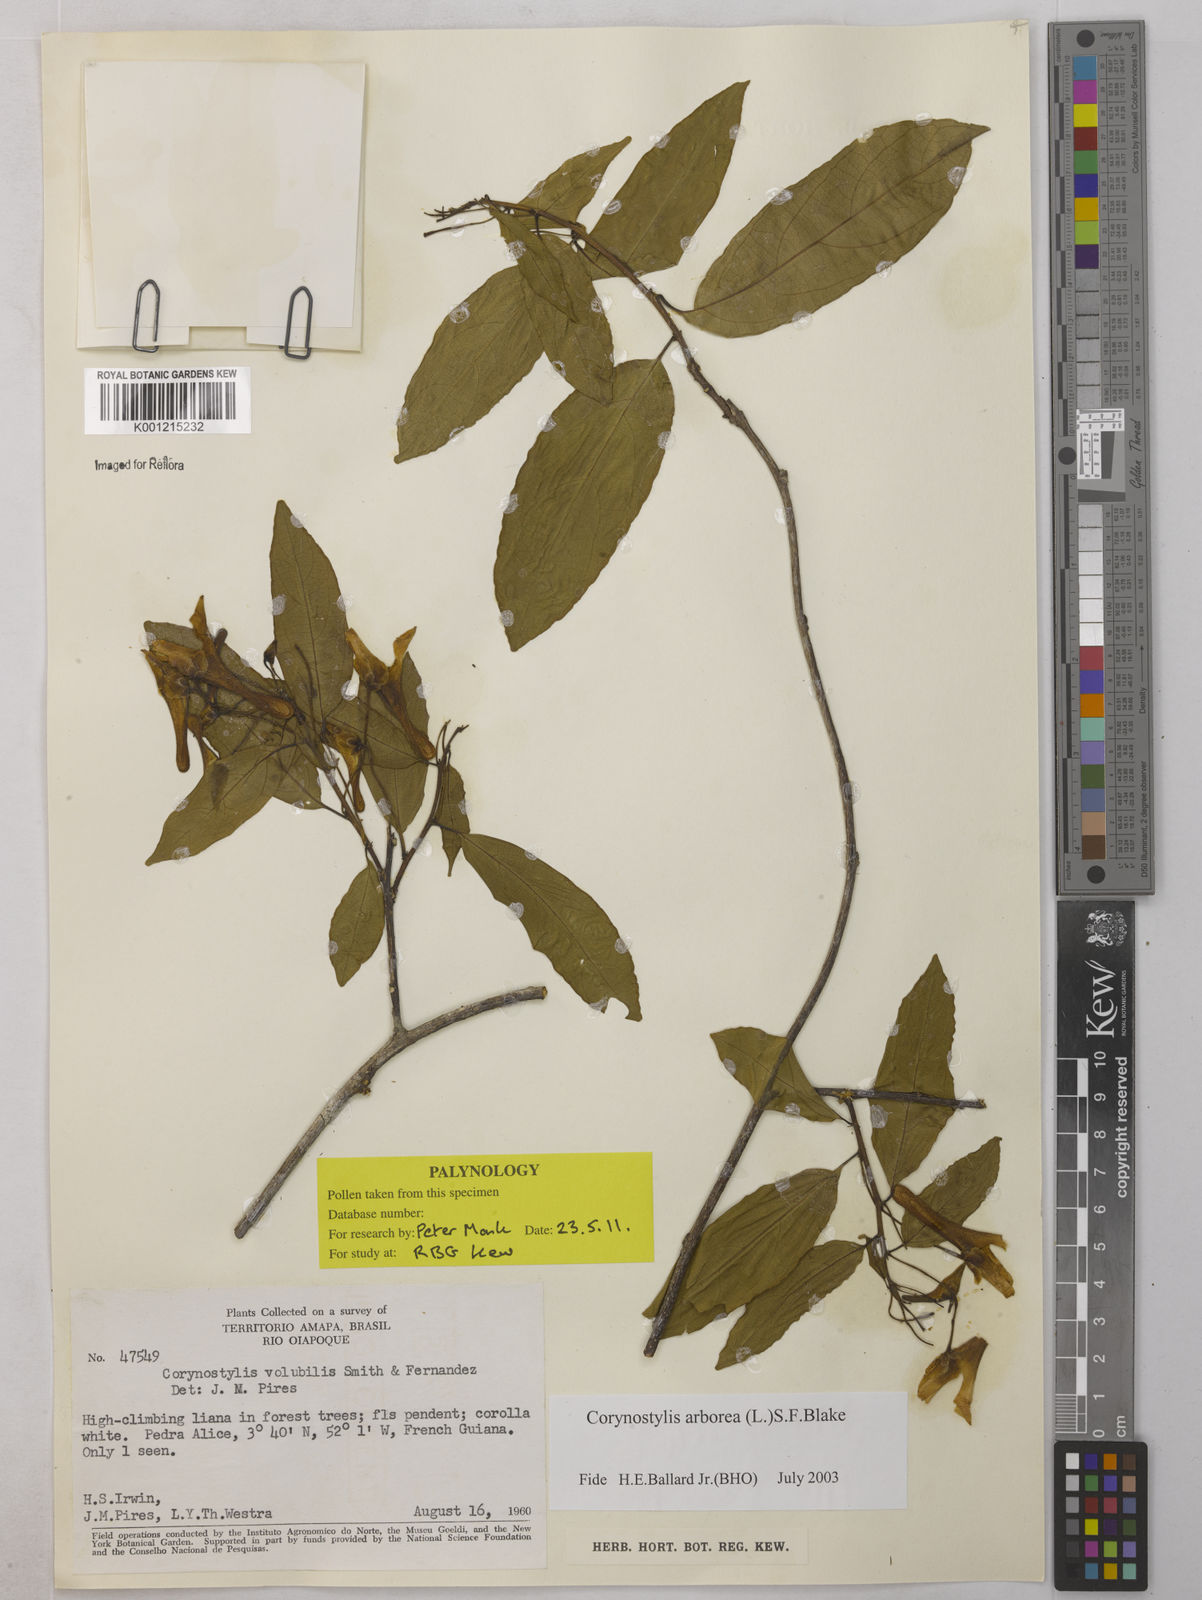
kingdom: Plantae
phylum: Tracheophyta
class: Magnoliopsida
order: Malpighiales
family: Violaceae
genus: Calyptrion
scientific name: Calyptrion arboreum
